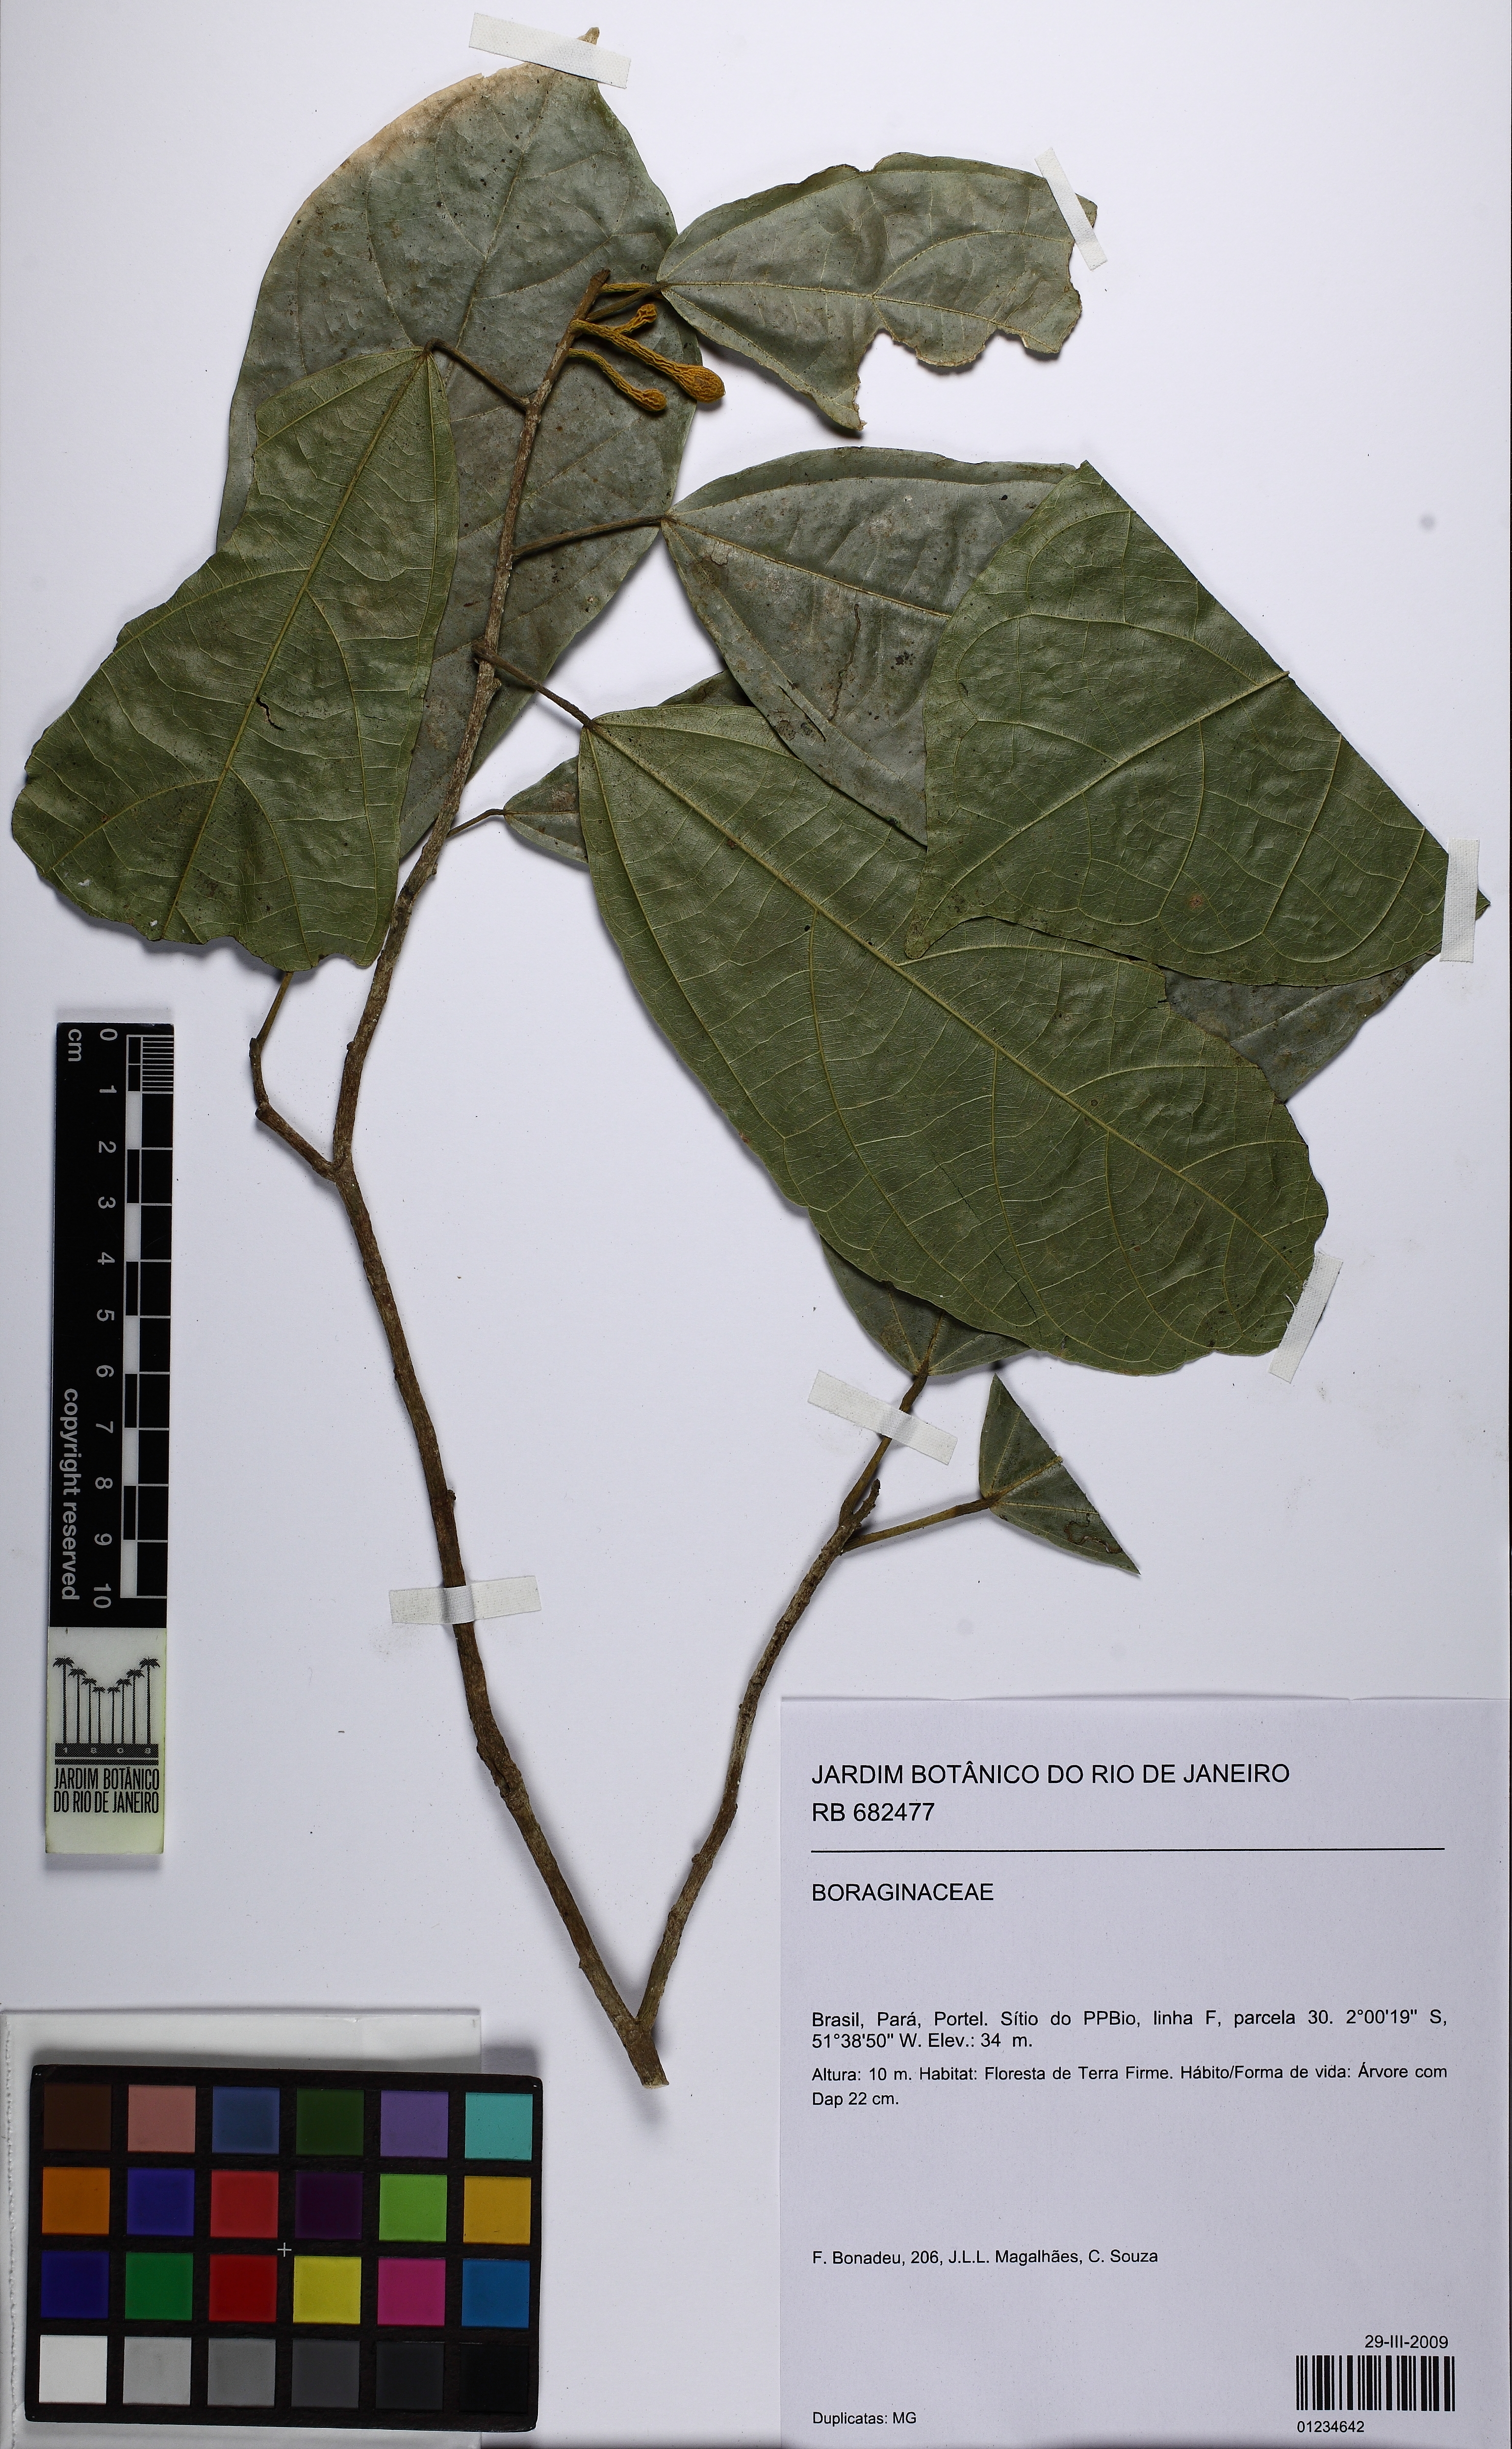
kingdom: Plantae
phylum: Tracheophyta
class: Magnoliopsida
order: Boraginales
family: Boraginaceae
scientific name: Boraginaceae
